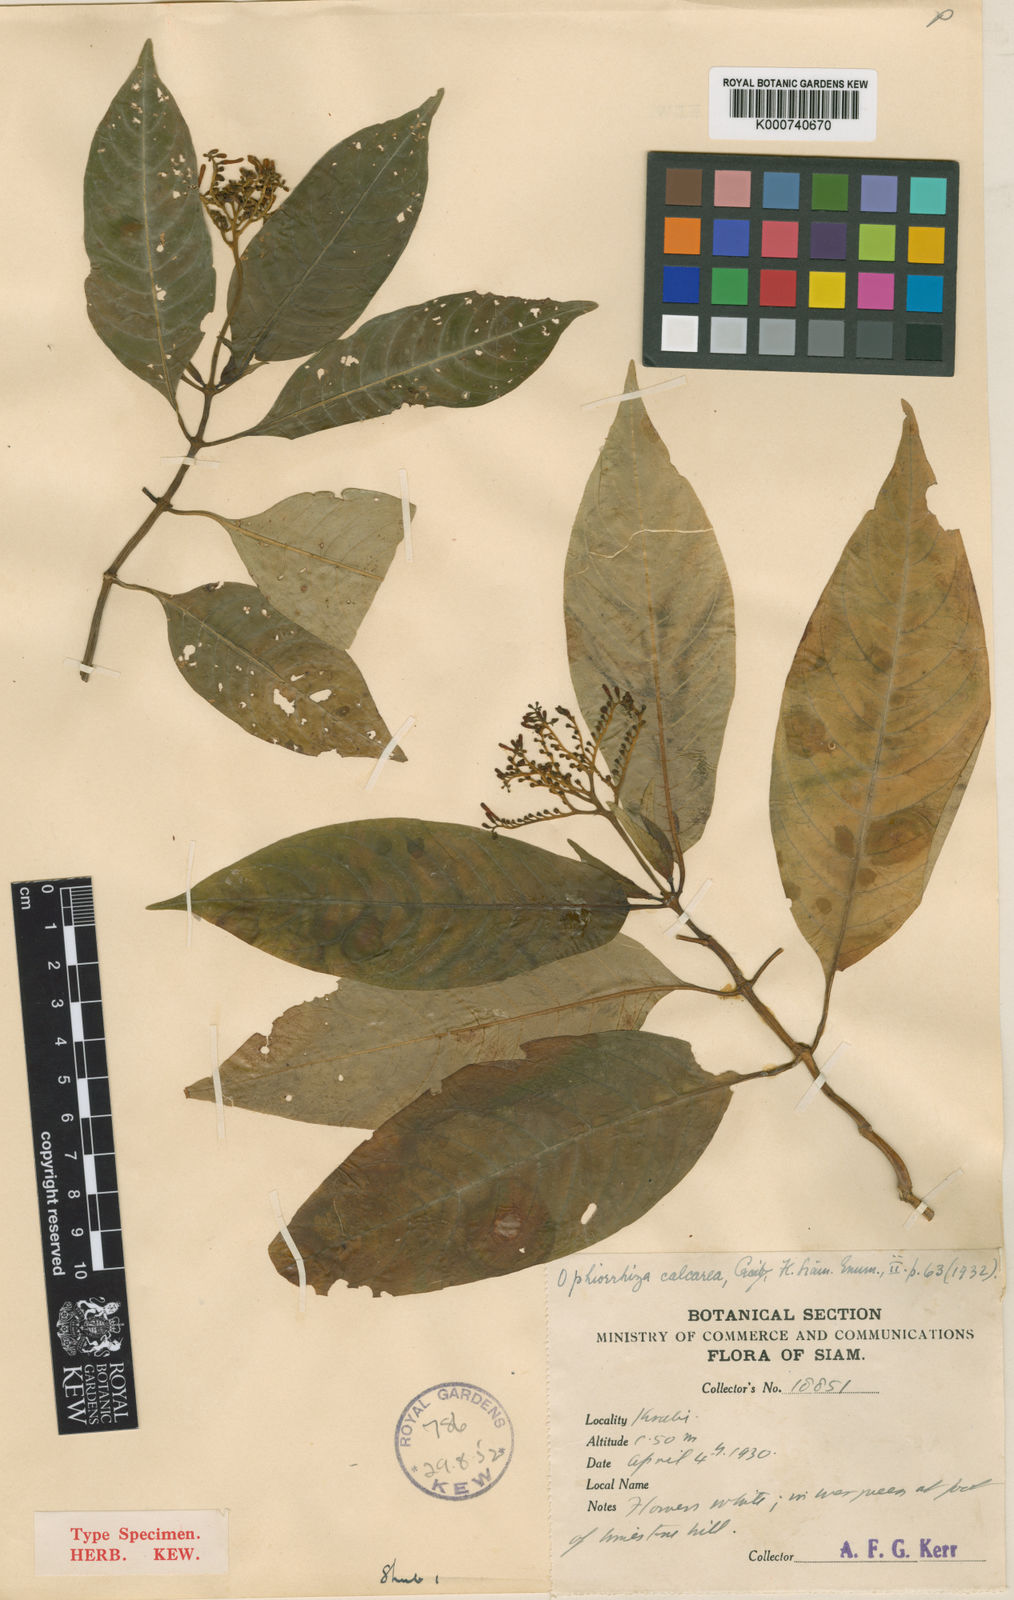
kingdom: Plantae
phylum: Tracheophyta
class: Magnoliopsida
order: Gentianales
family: Rubiaceae
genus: Ophiorrhiza
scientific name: Ophiorrhiza discolor
